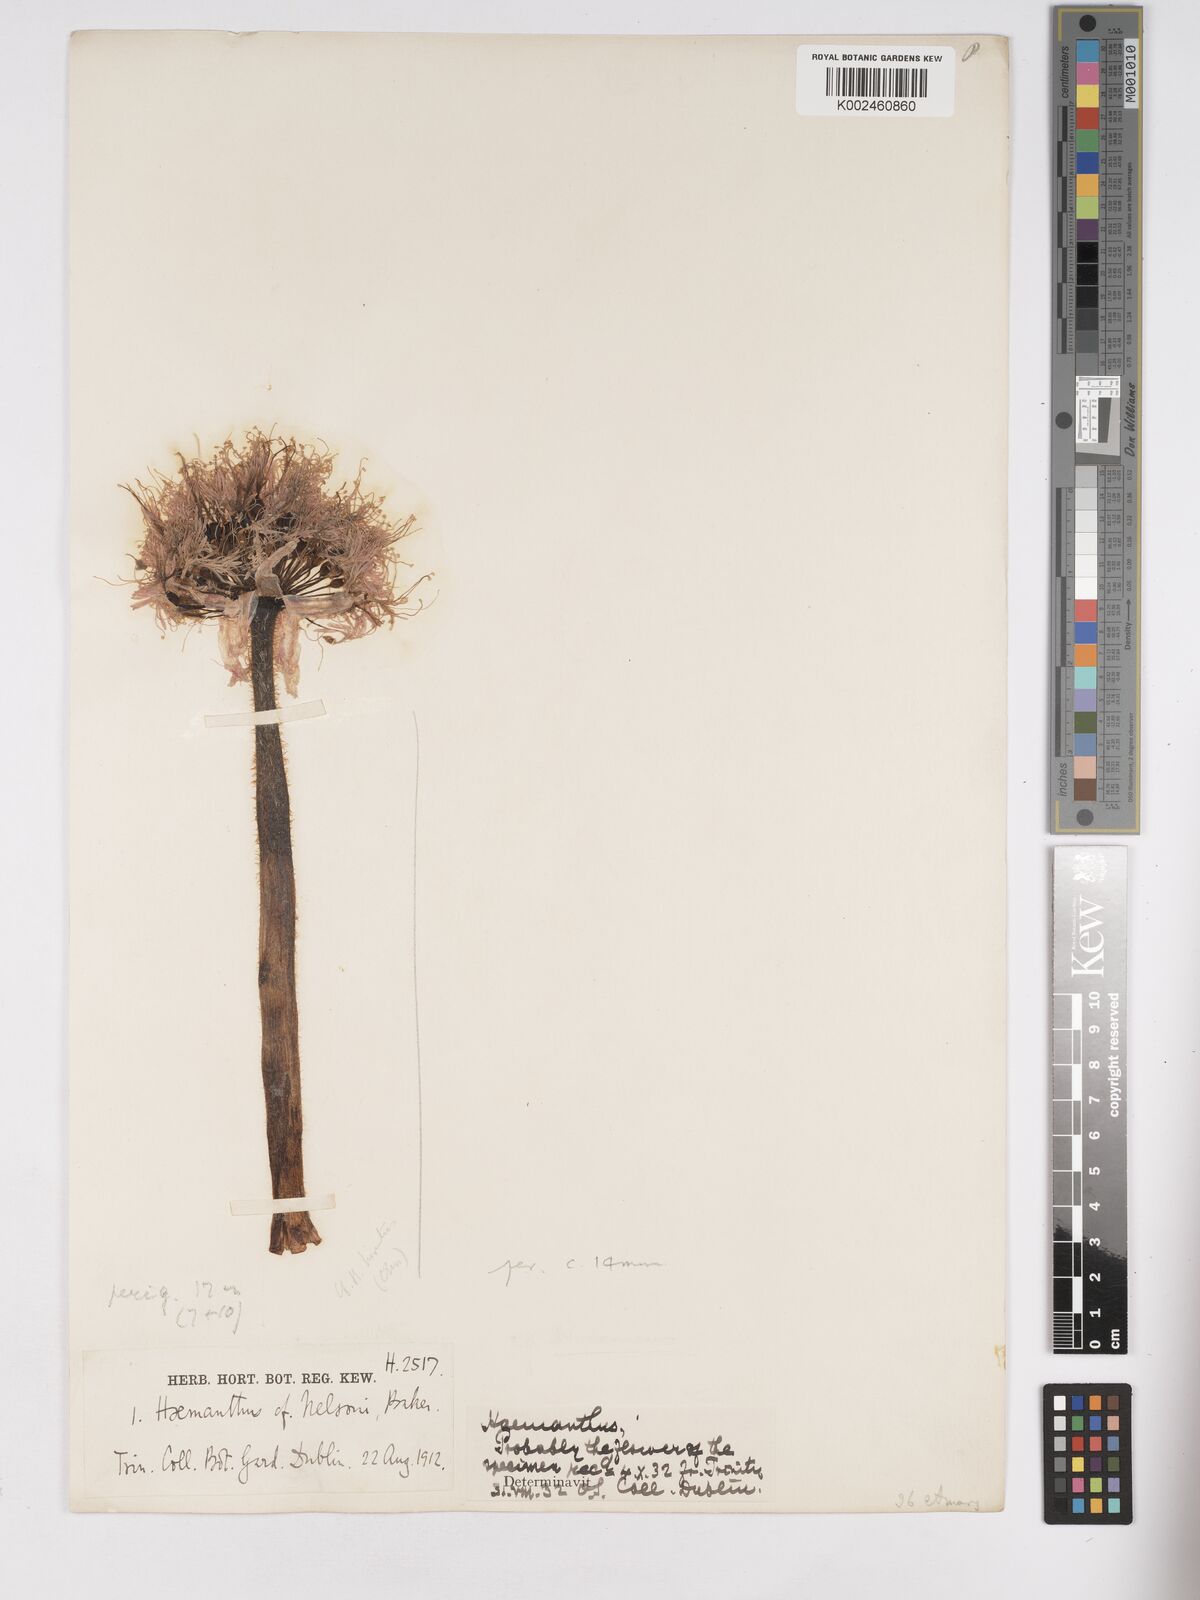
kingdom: Plantae
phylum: Tracheophyta
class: Liliopsida
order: Asparagales
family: Amaryllidaceae
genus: Haemanthus
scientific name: Haemanthus humilis
